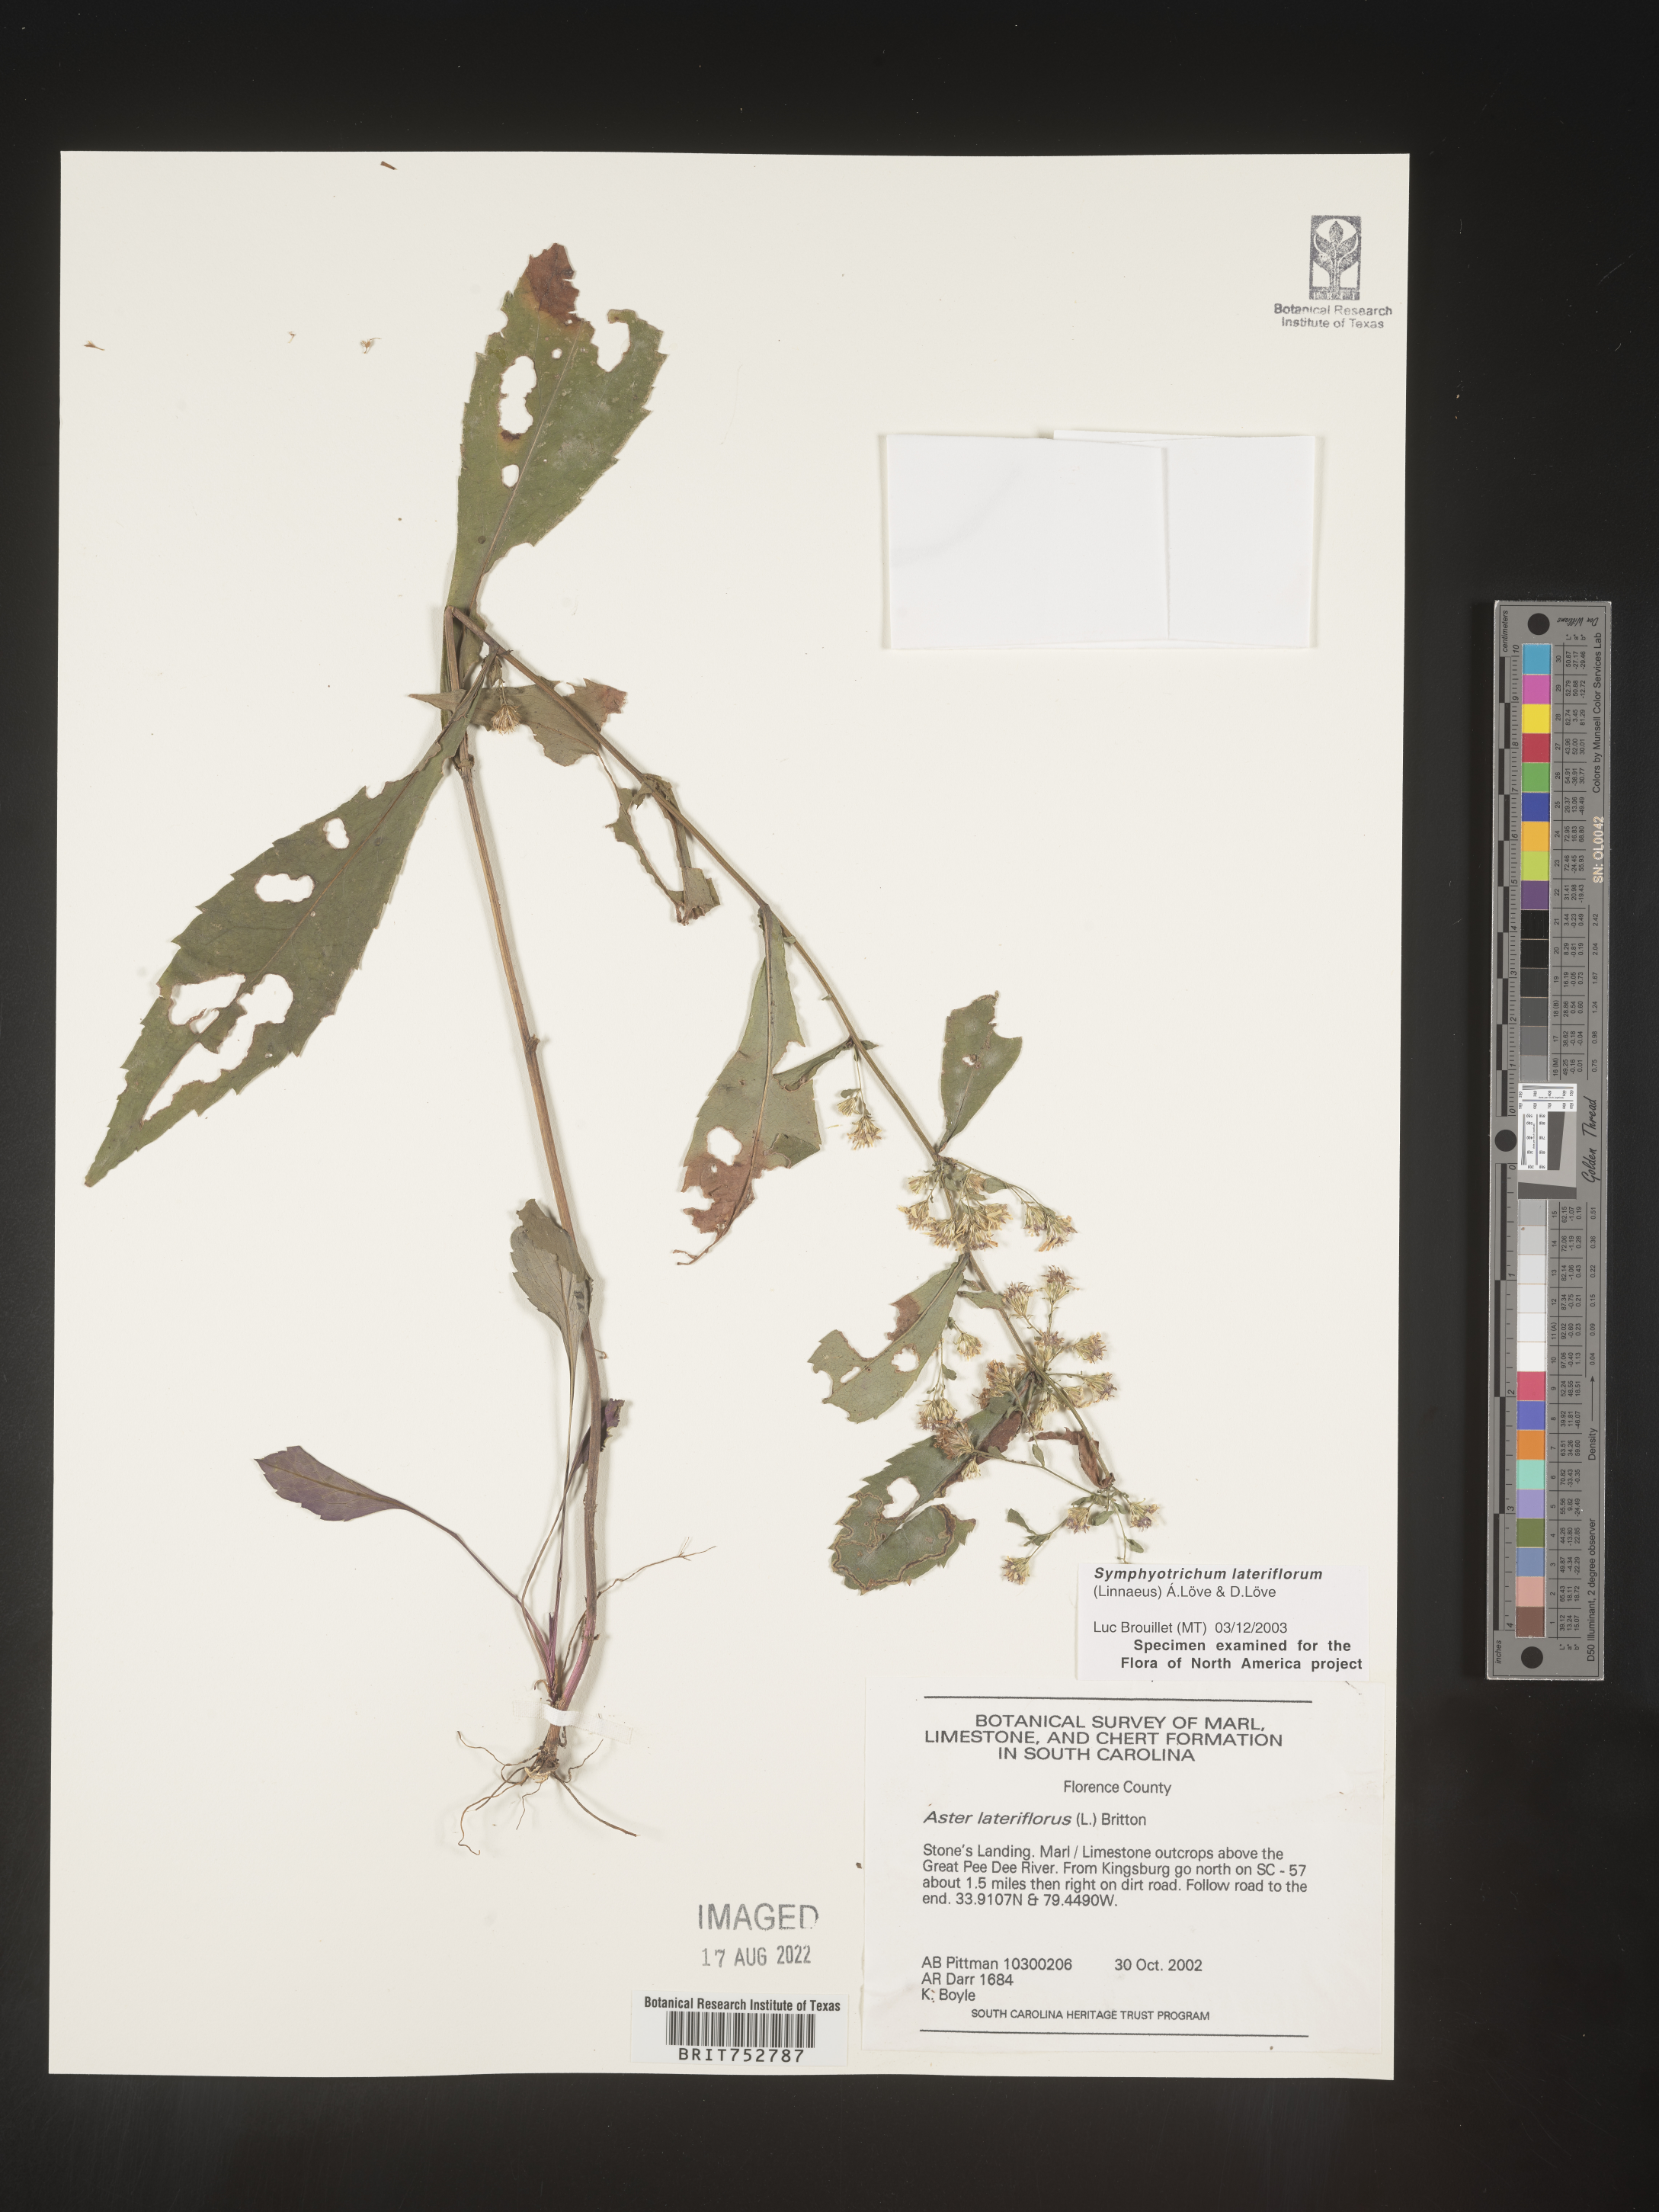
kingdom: Plantae
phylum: Tracheophyta
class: Magnoliopsida
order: Asterales
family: Asteraceae
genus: Symphyotrichum
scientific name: Symphyotrichum lateriflorum
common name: Calico aster
